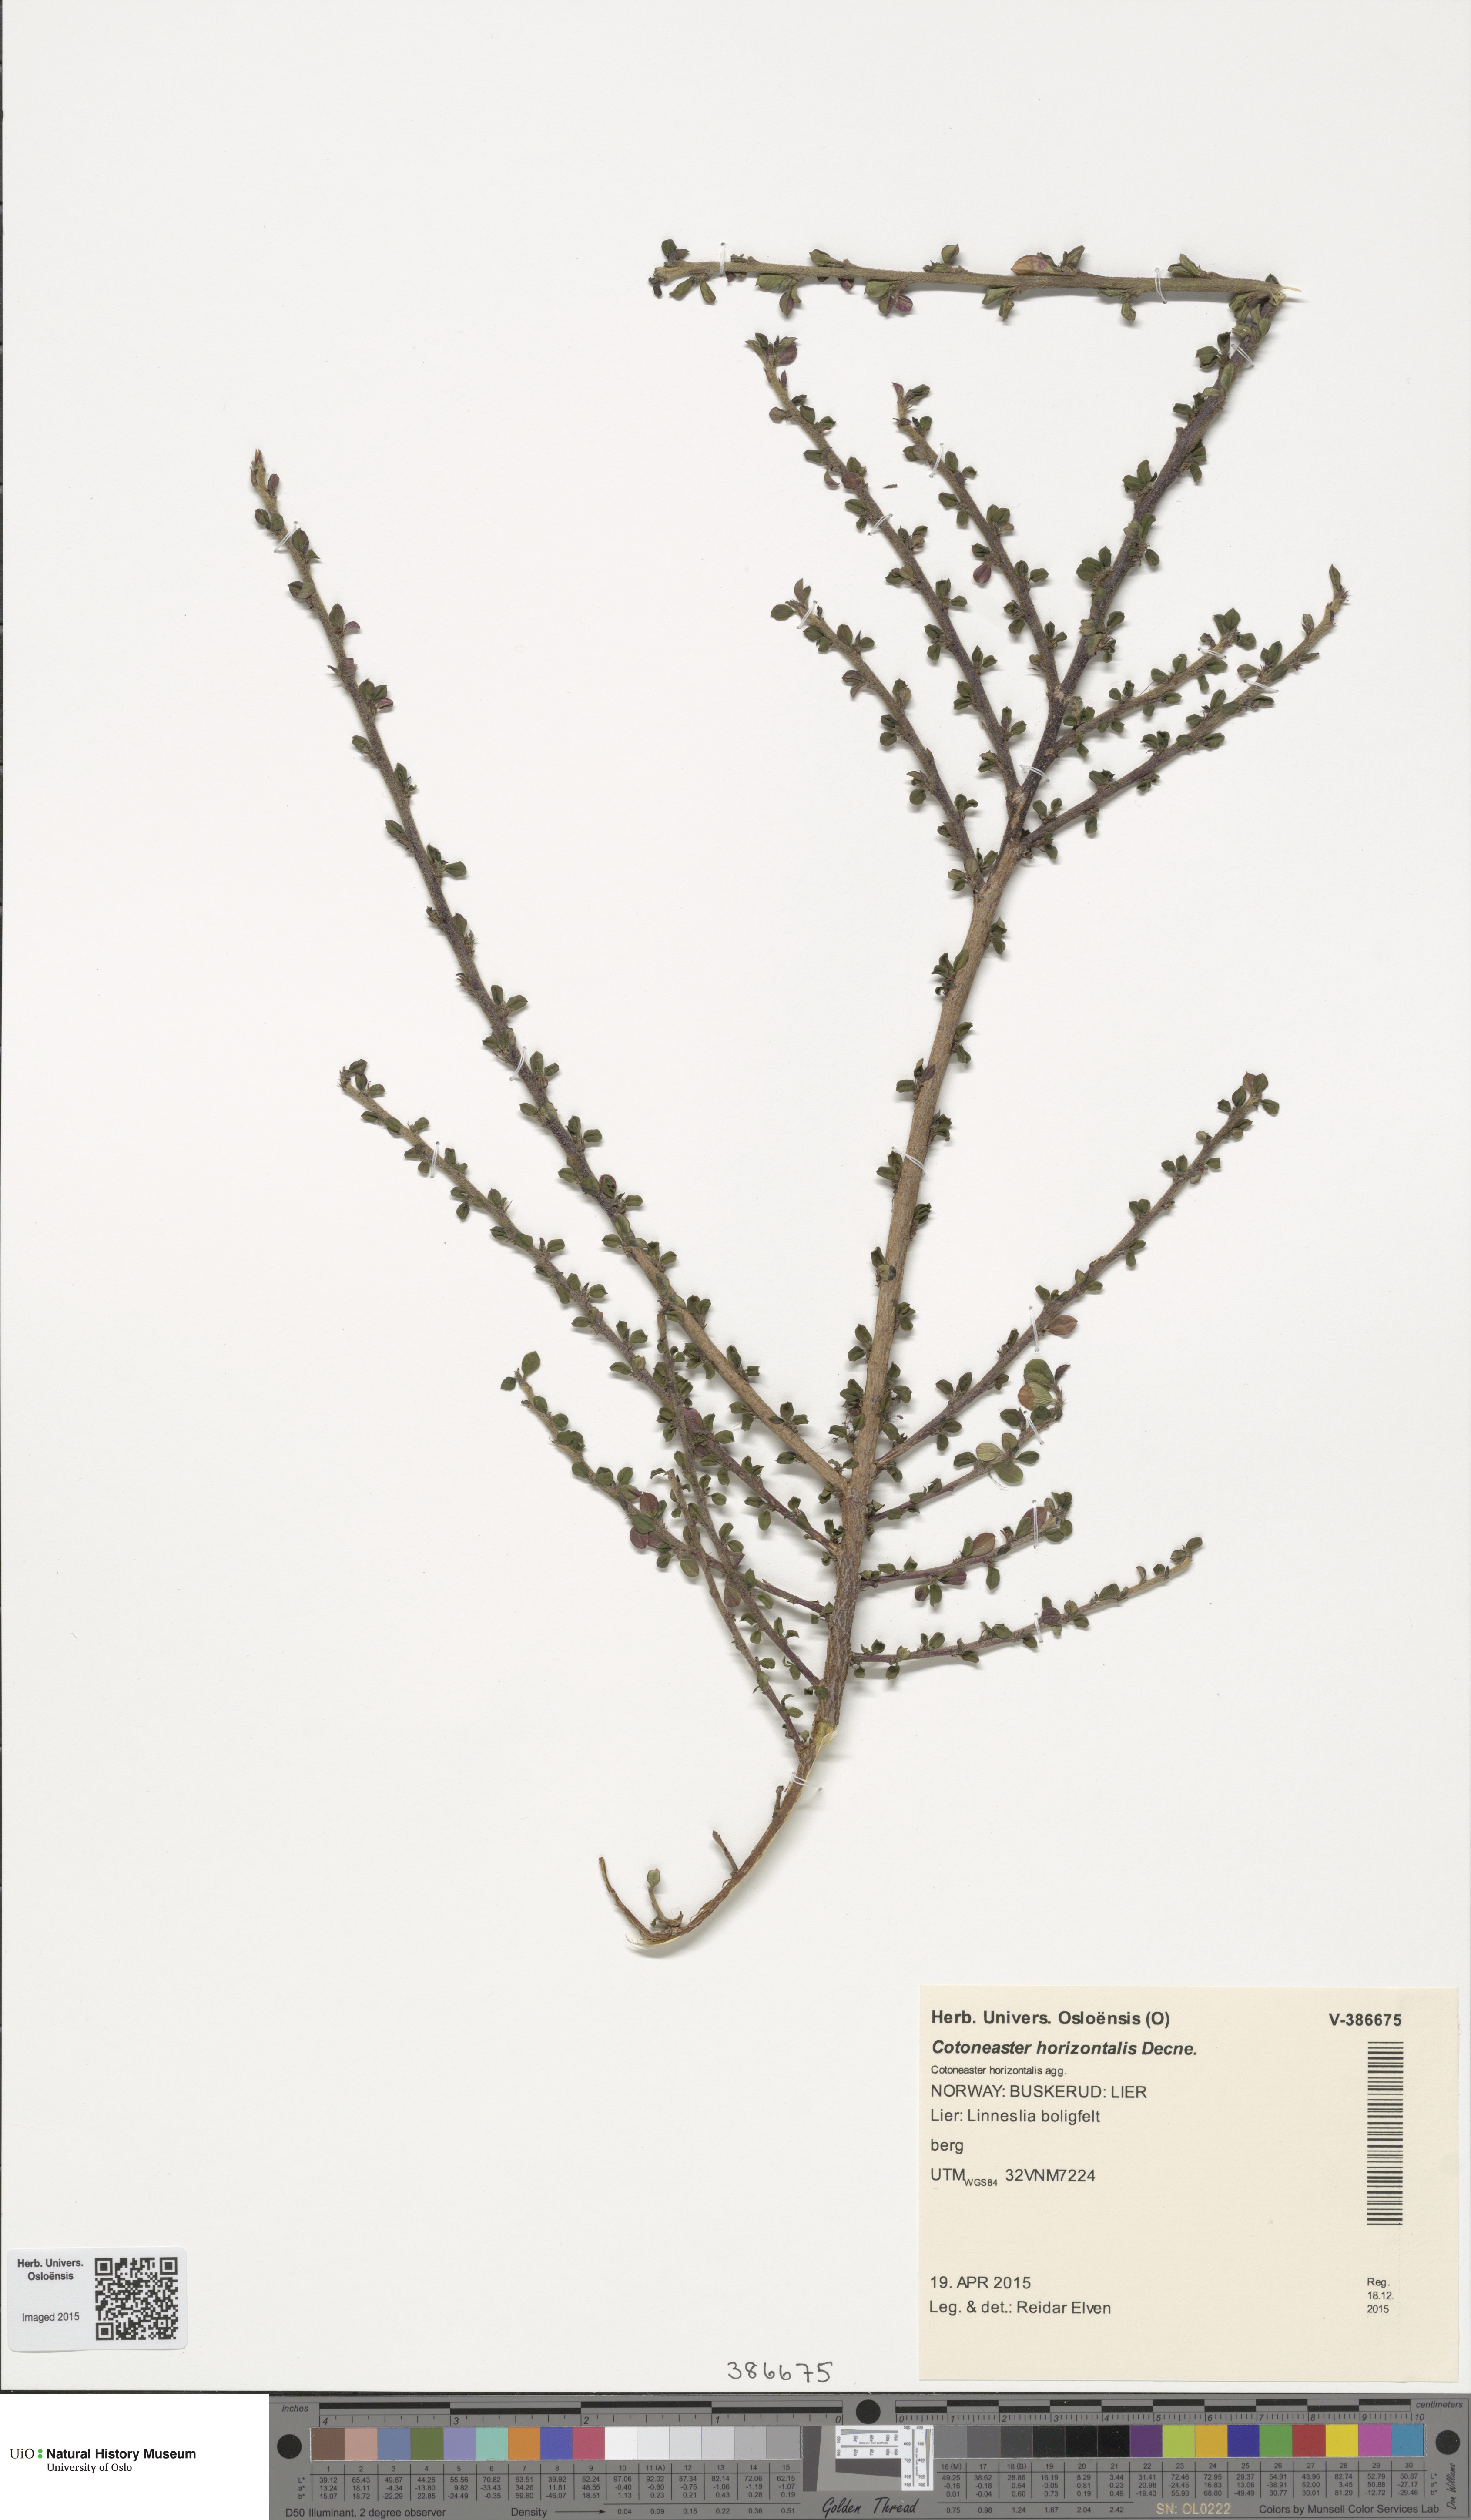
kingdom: Plantae
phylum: Tracheophyta
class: Magnoliopsida
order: Rosales
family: Rosaceae
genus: Cotoneaster
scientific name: Cotoneaster horizontalis
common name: Wall cotoneaster
